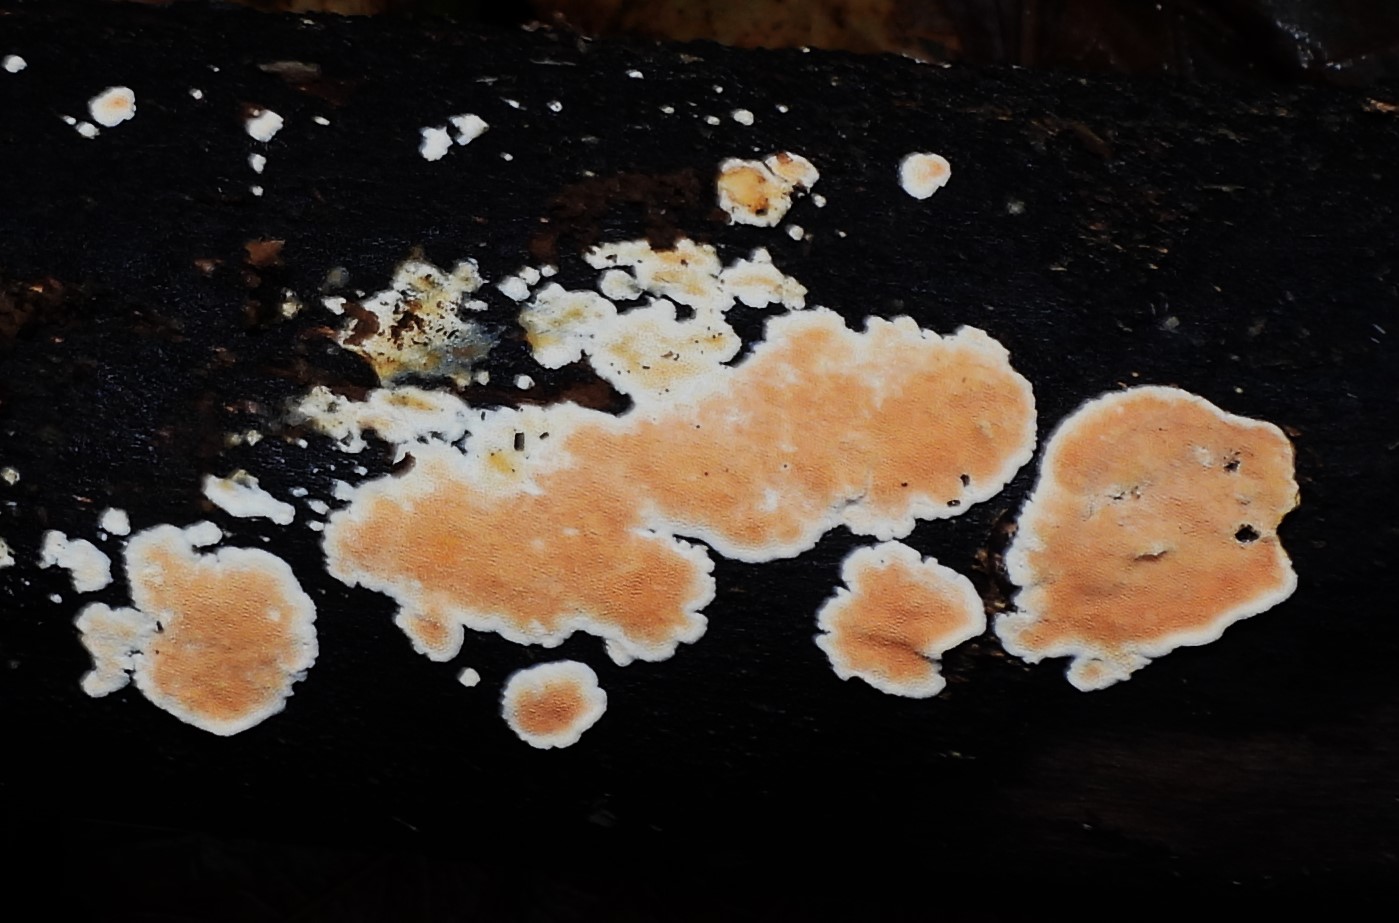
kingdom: Fungi
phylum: Basidiomycota
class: Agaricomycetes
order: Polyporales
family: Steccherinaceae
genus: Steccherinum
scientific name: Steccherinum ochraceum
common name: almindelig skønpig
